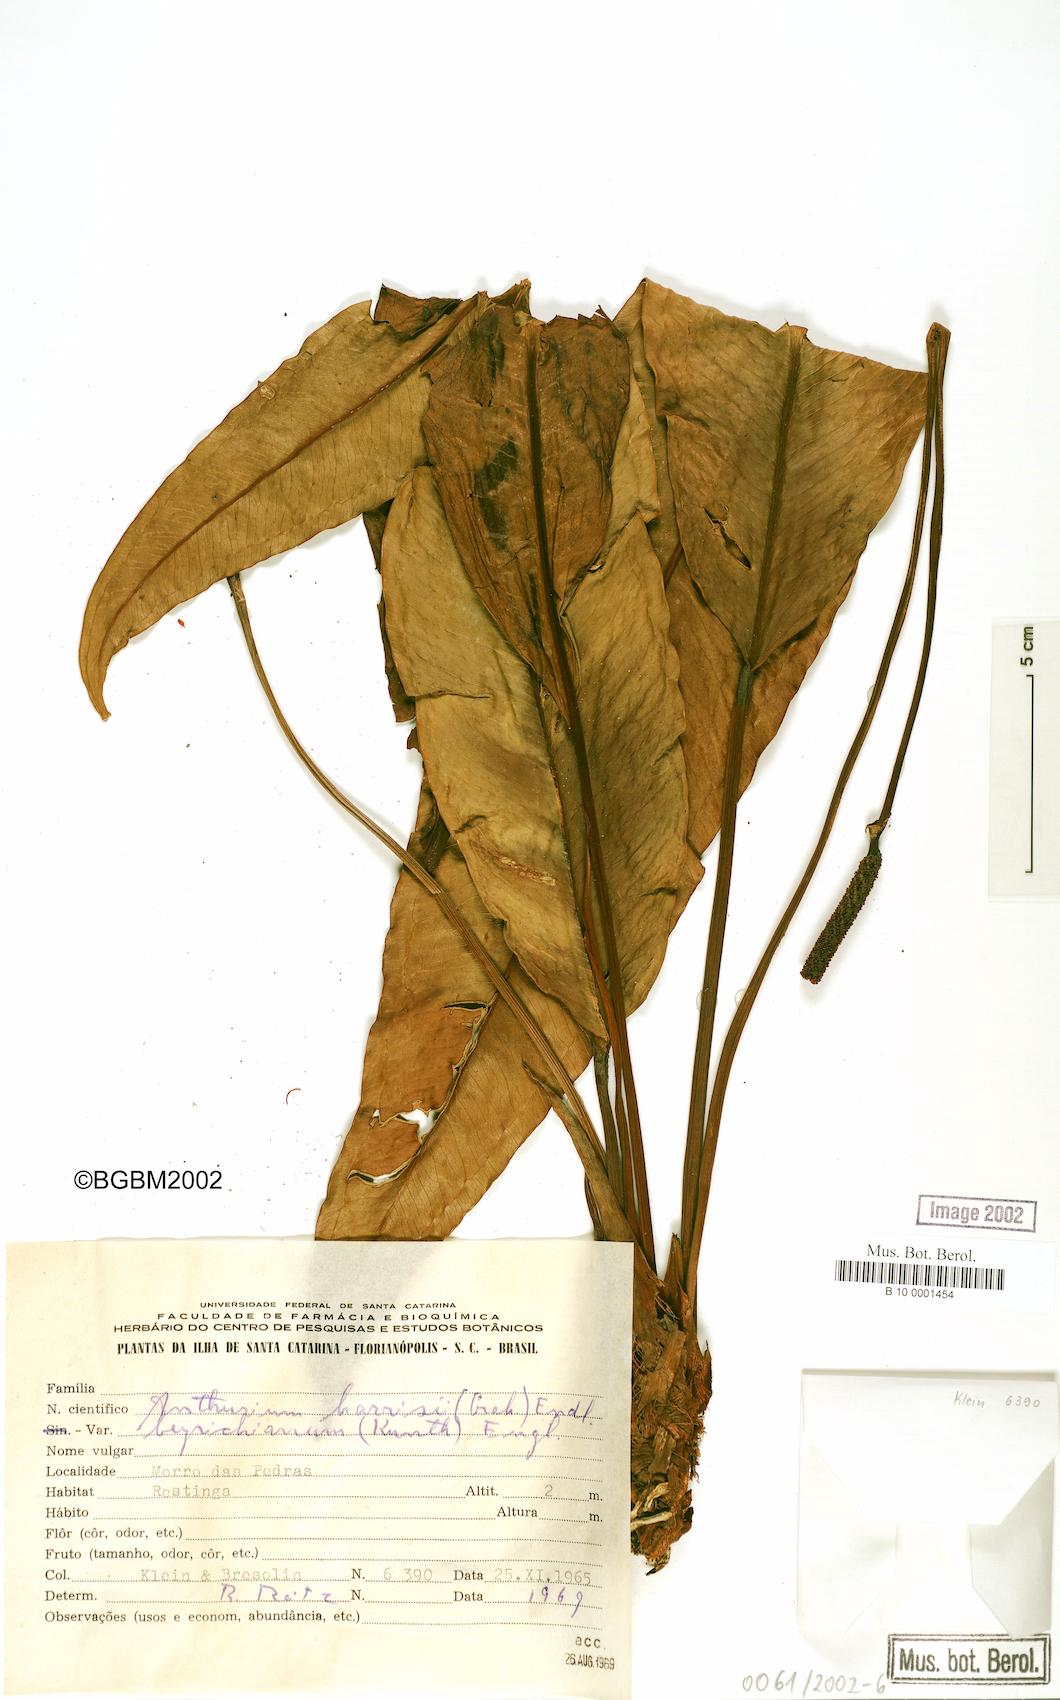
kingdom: Plantae
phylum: Tracheophyta
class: Liliopsida
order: Alismatales
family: Araceae
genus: Anthurium
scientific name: Anthurium intermedium
